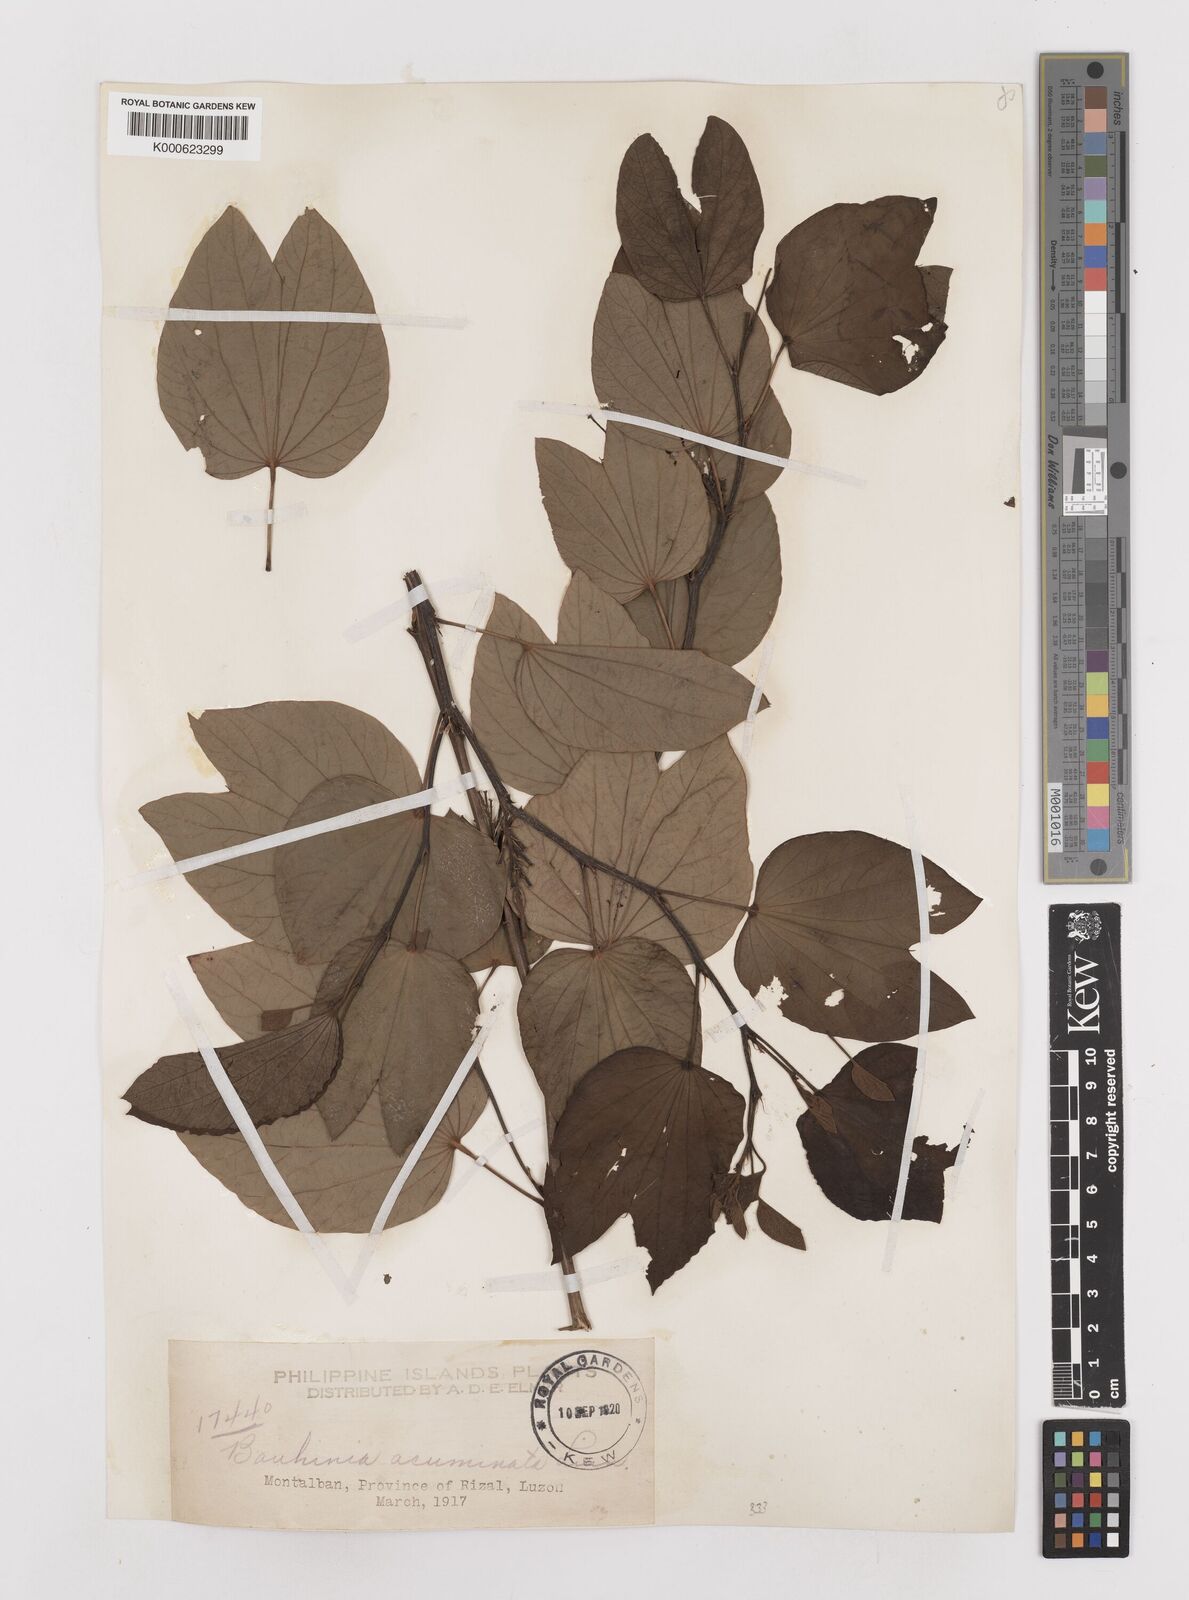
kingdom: Plantae
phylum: Tracheophyta
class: Magnoliopsida
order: Fabales
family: Fabaceae
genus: Bauhinia
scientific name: Bauhinia acuminata
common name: Dwarf white bauhinia
